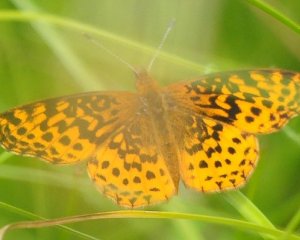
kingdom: Animalia
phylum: Arthropoda
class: Insecta
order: Lepidoptera
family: Nymphalidae
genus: Clossiana
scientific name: Clossiana toddi
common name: Meadow Fritillary
